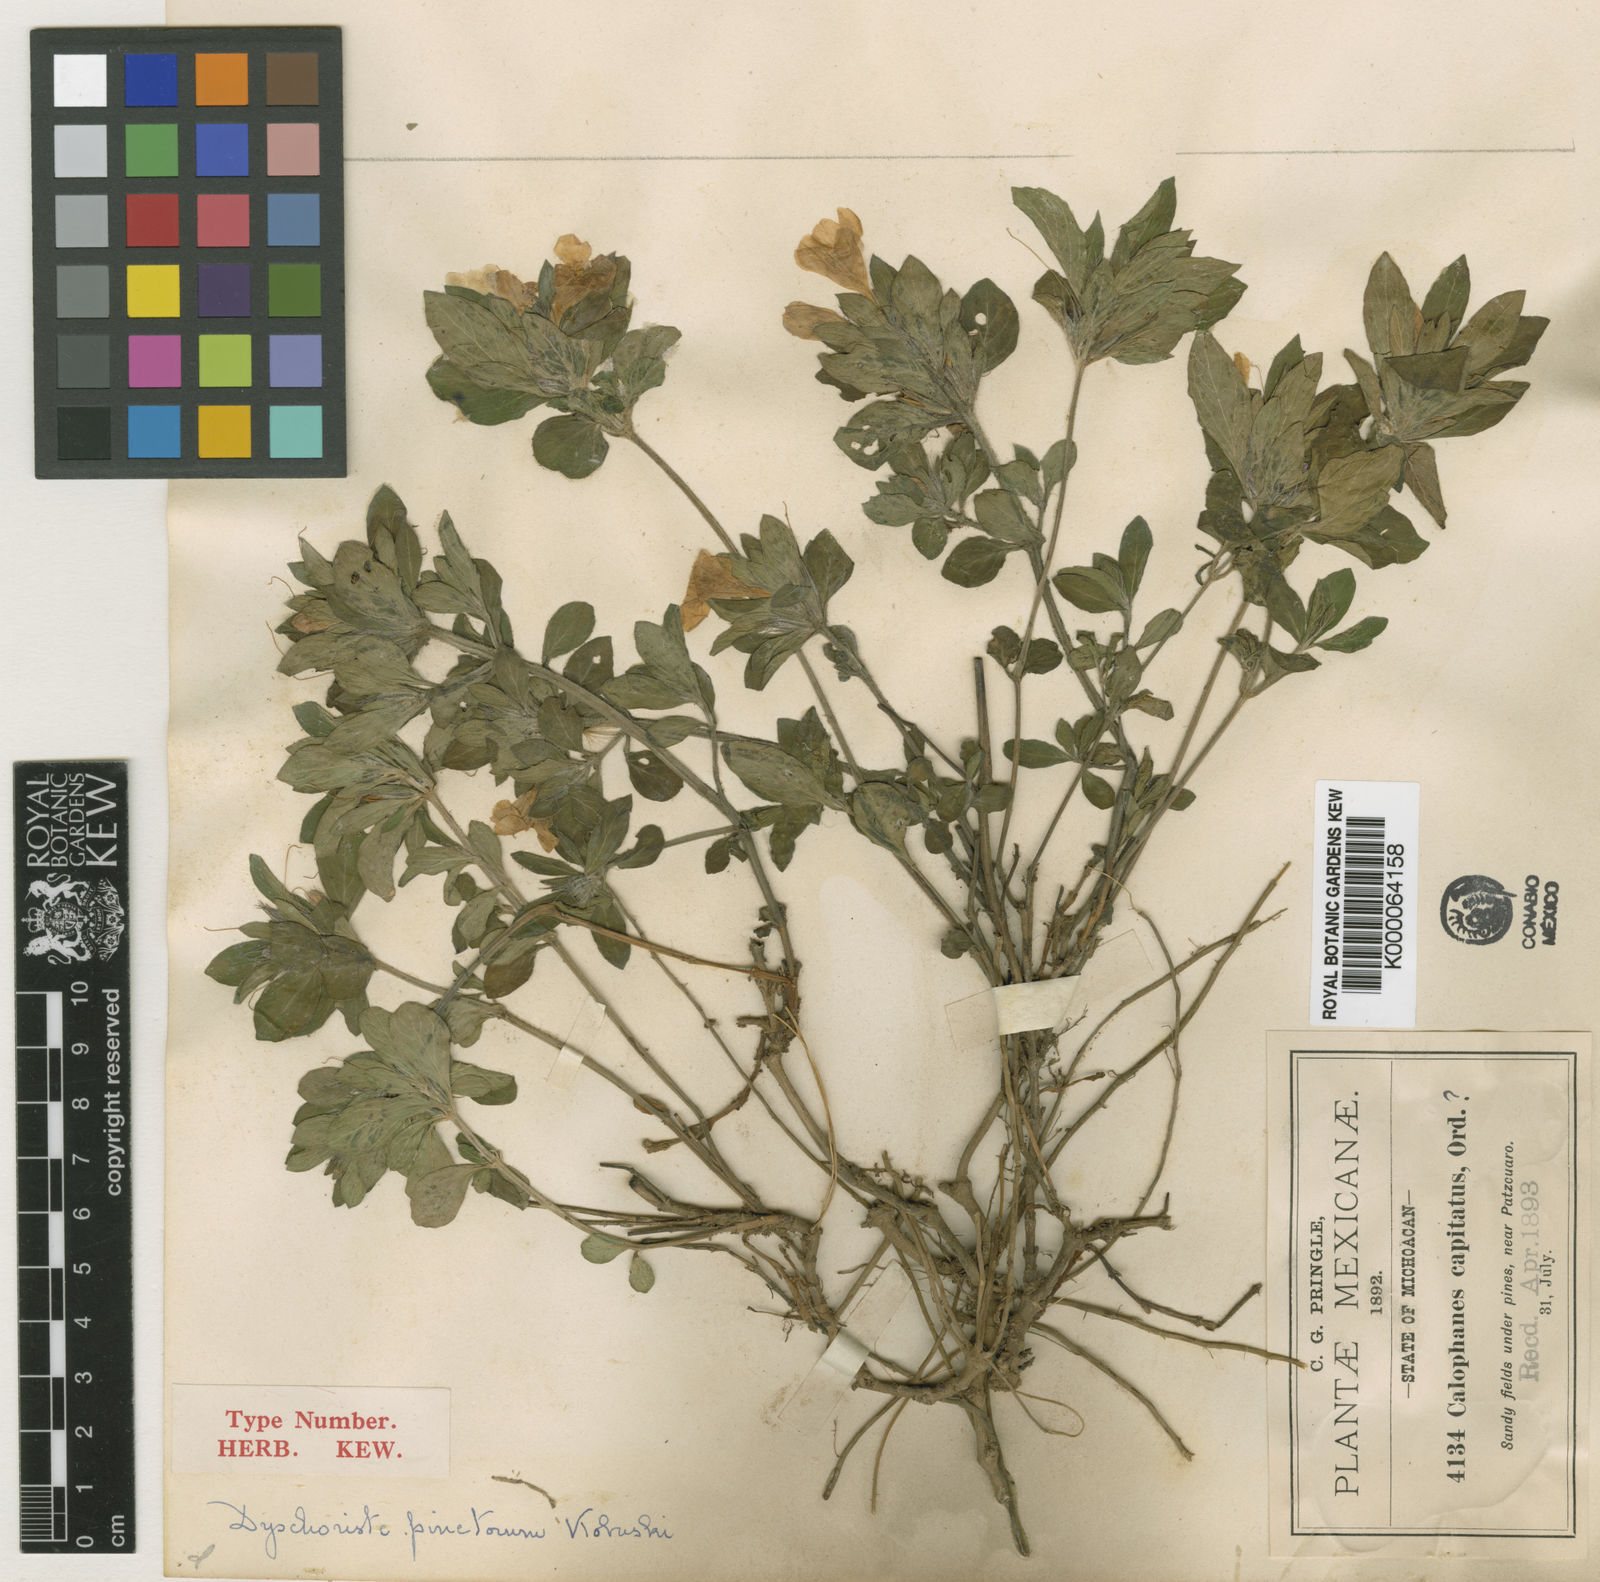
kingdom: Plantae
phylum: Tracheophyta
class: Magnoliopsida
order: Lamiales
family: Acanthaceae
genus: Dyschoriste
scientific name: Dyschoriste pinetorum
